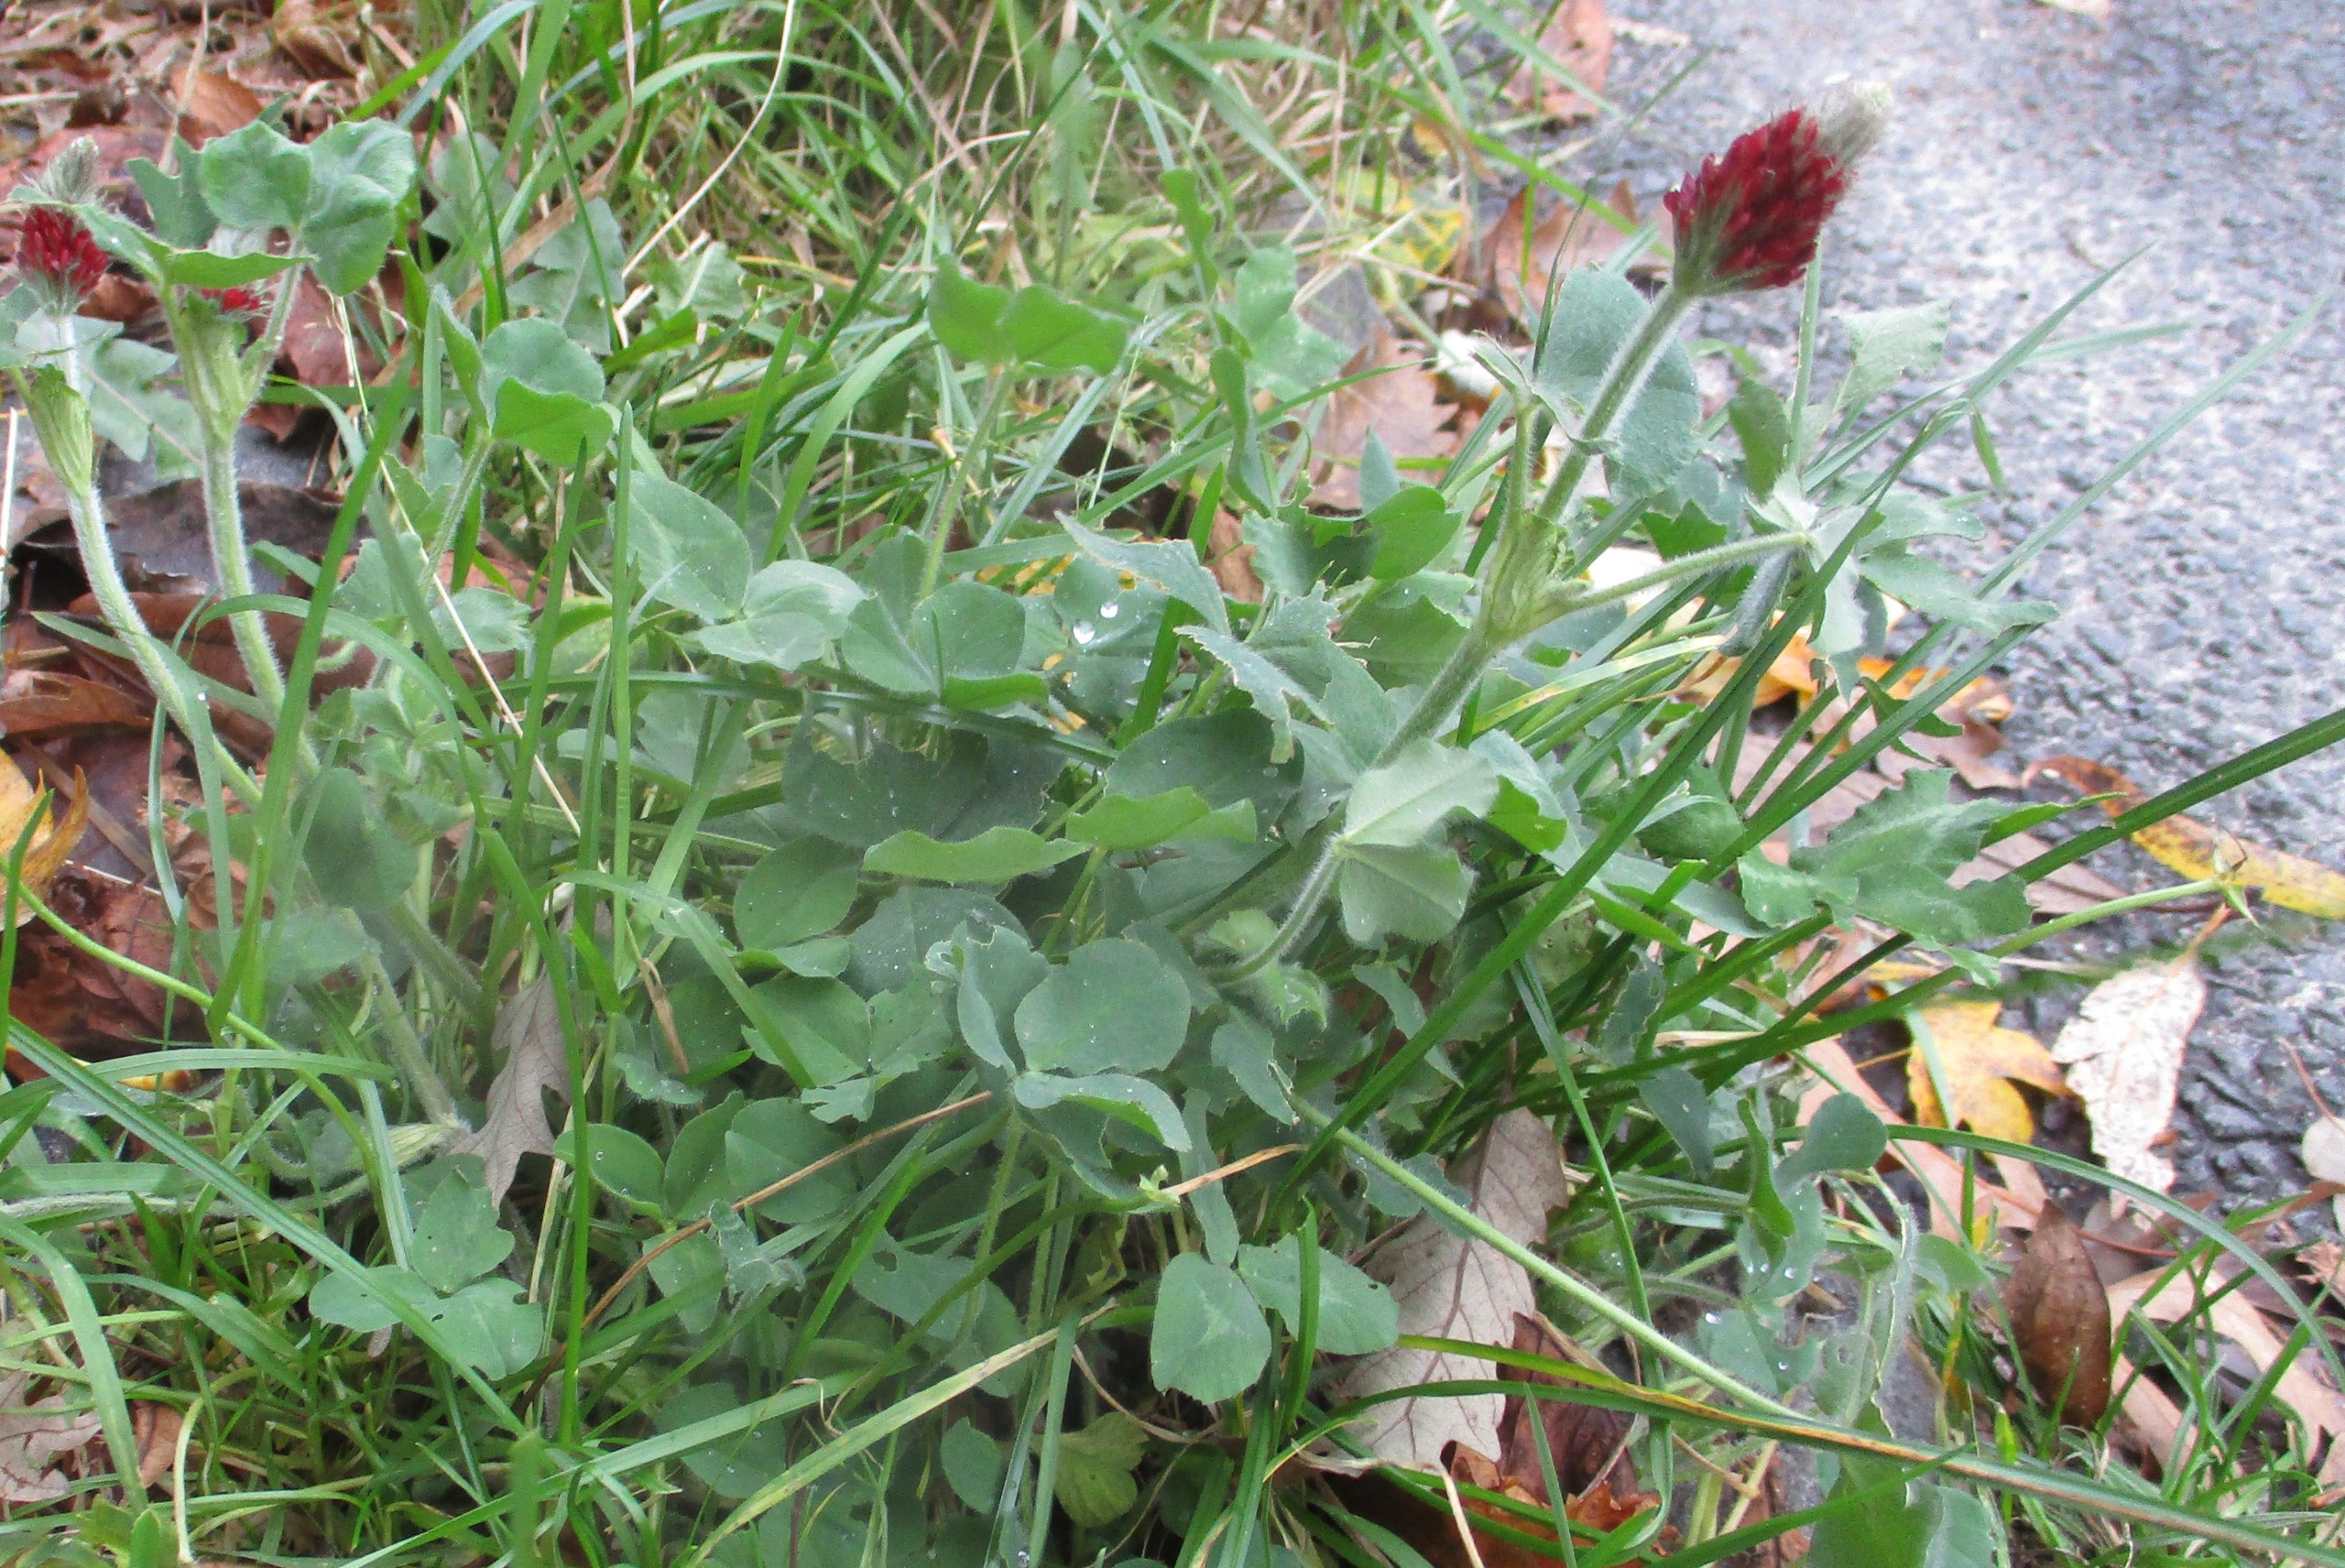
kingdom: Plantae
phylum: Tracheophyta
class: Magnoliopsida
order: Fabales
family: Fabaceae
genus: Trifolium
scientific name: Trifolium incarnatum
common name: Blod-kløver
